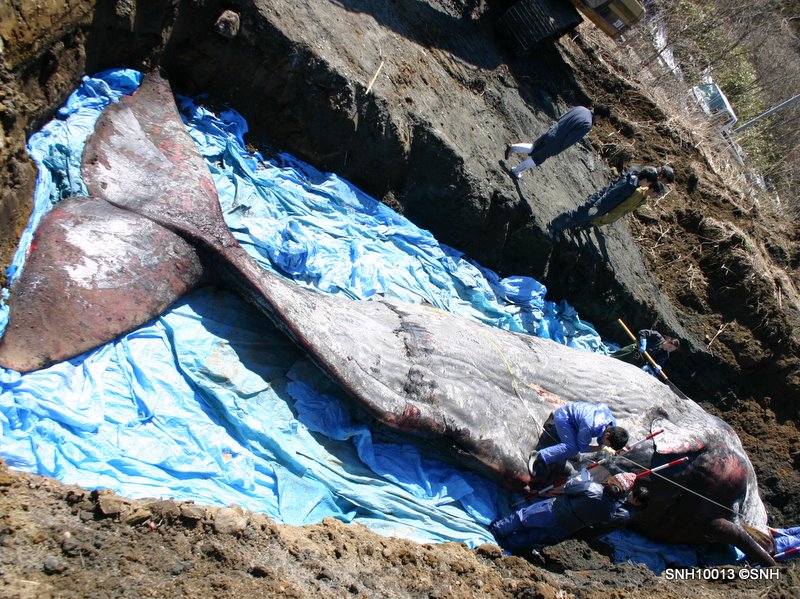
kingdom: Animalia
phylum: Chordata
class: Mammalia
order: Cetacea
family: Physeteridae
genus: Physeter
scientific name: Physeter macrocephalus
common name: Sperm whale
